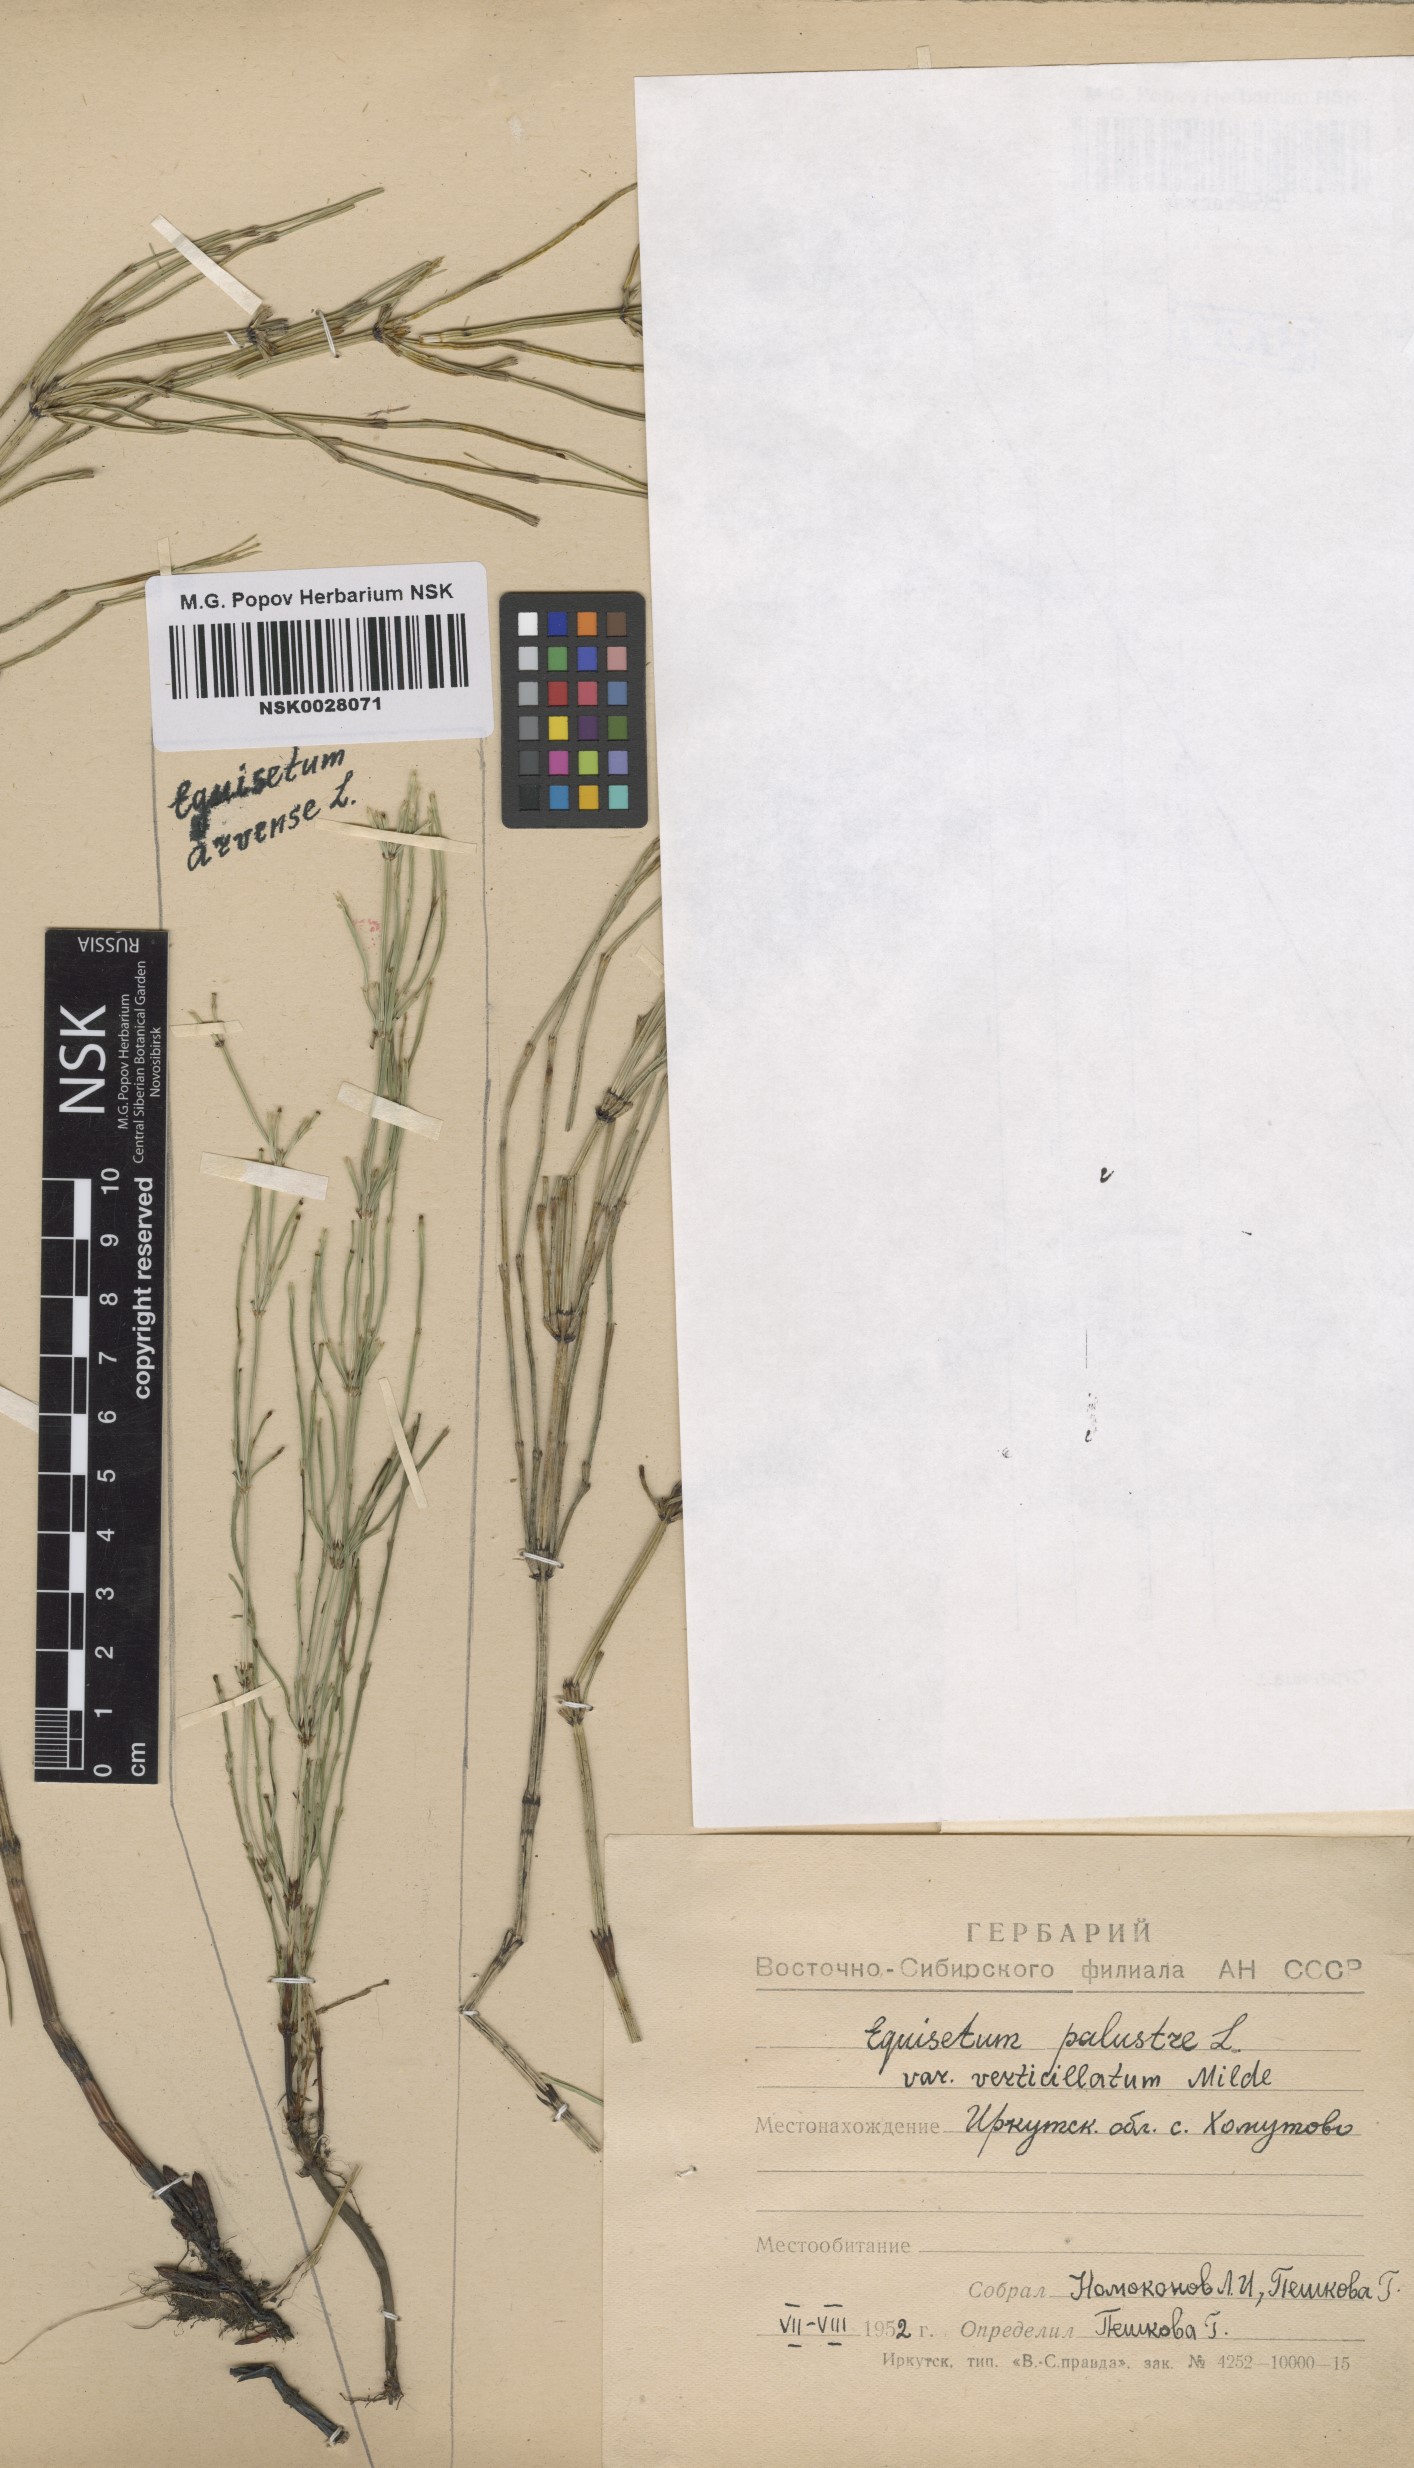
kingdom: Plantae
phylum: Tracheophyta
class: Polypodiopsida
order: Equisetales
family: Equisetaceae
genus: Equisetum
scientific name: Equisetum arvense
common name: Field horsetail
